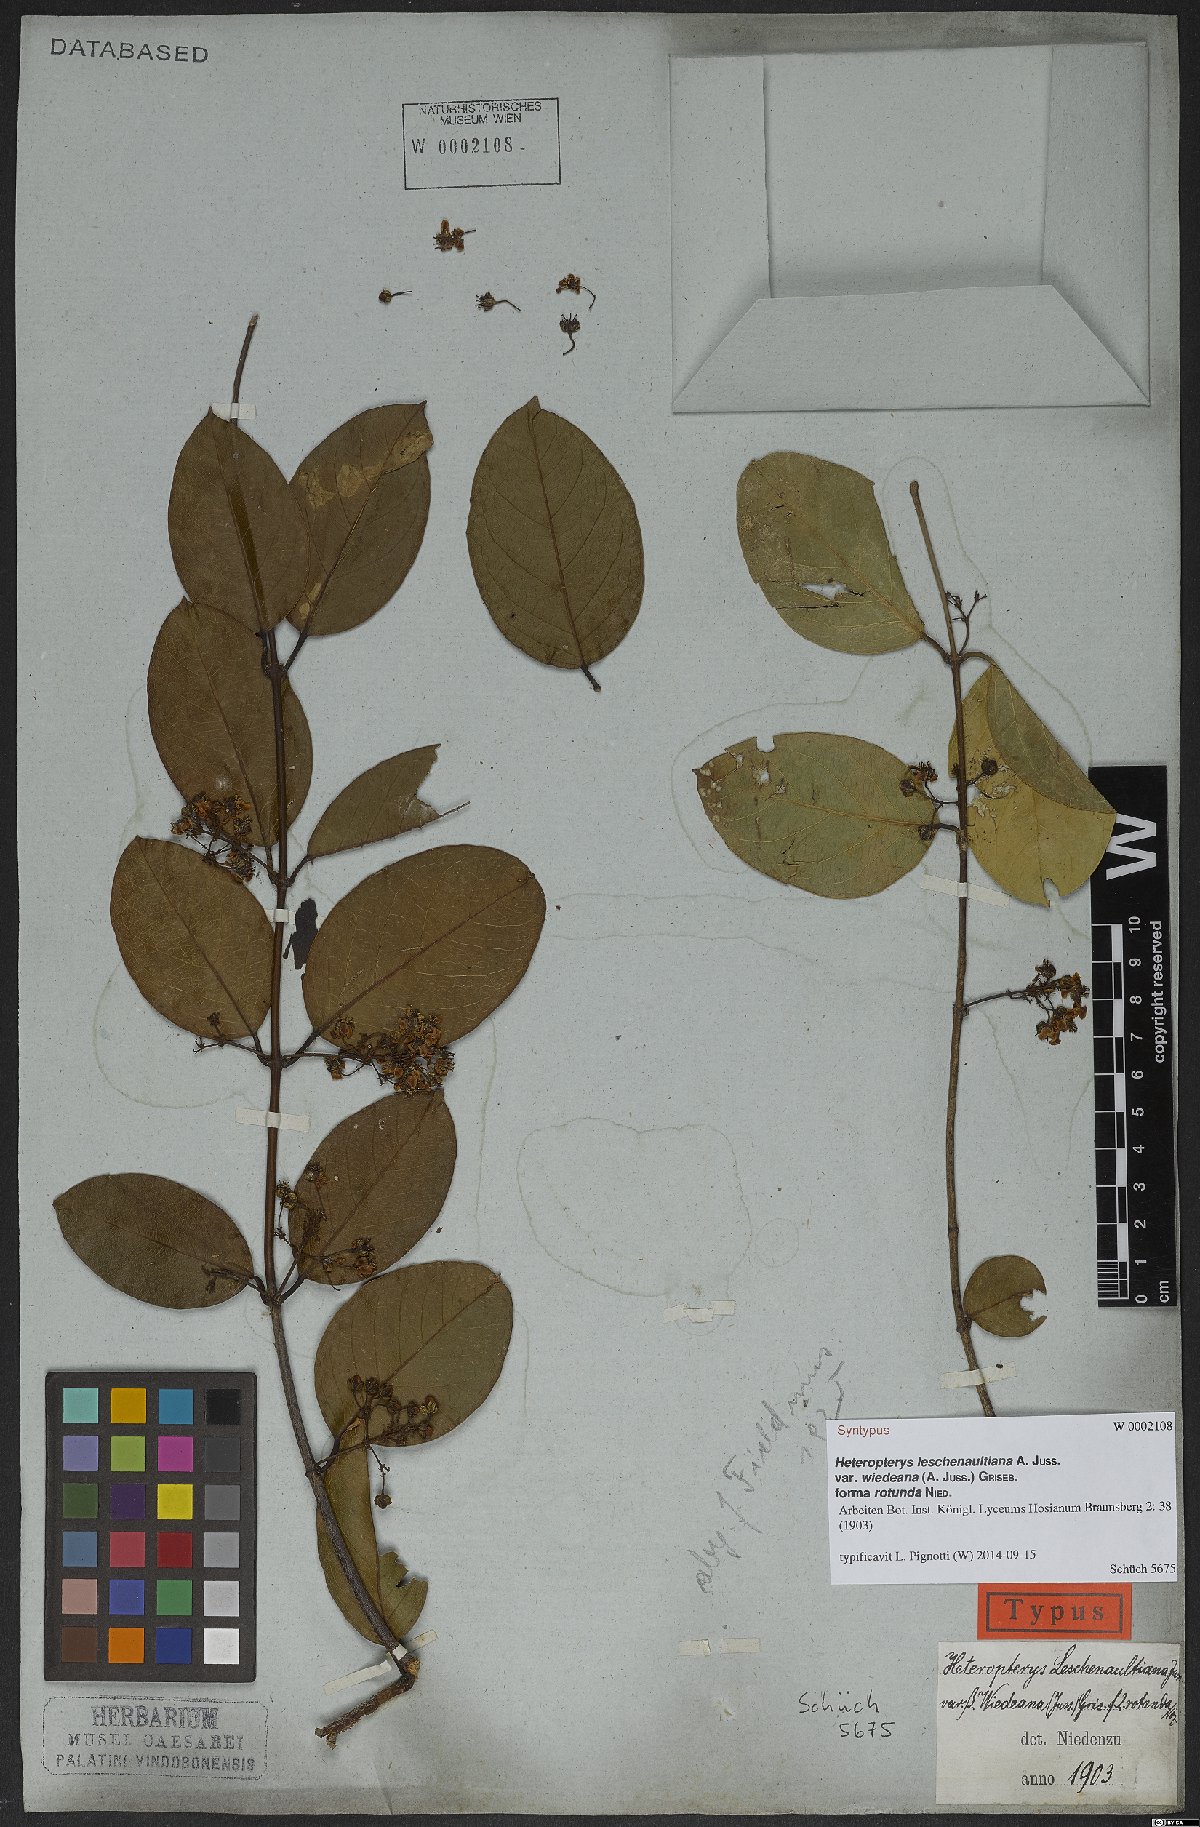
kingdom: Plantae
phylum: Tracheophyta
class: Magnoliopsida
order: Malpighiales
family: Malpighiaceae
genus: Heteropterys
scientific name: Heteropterys leschenaultiana
